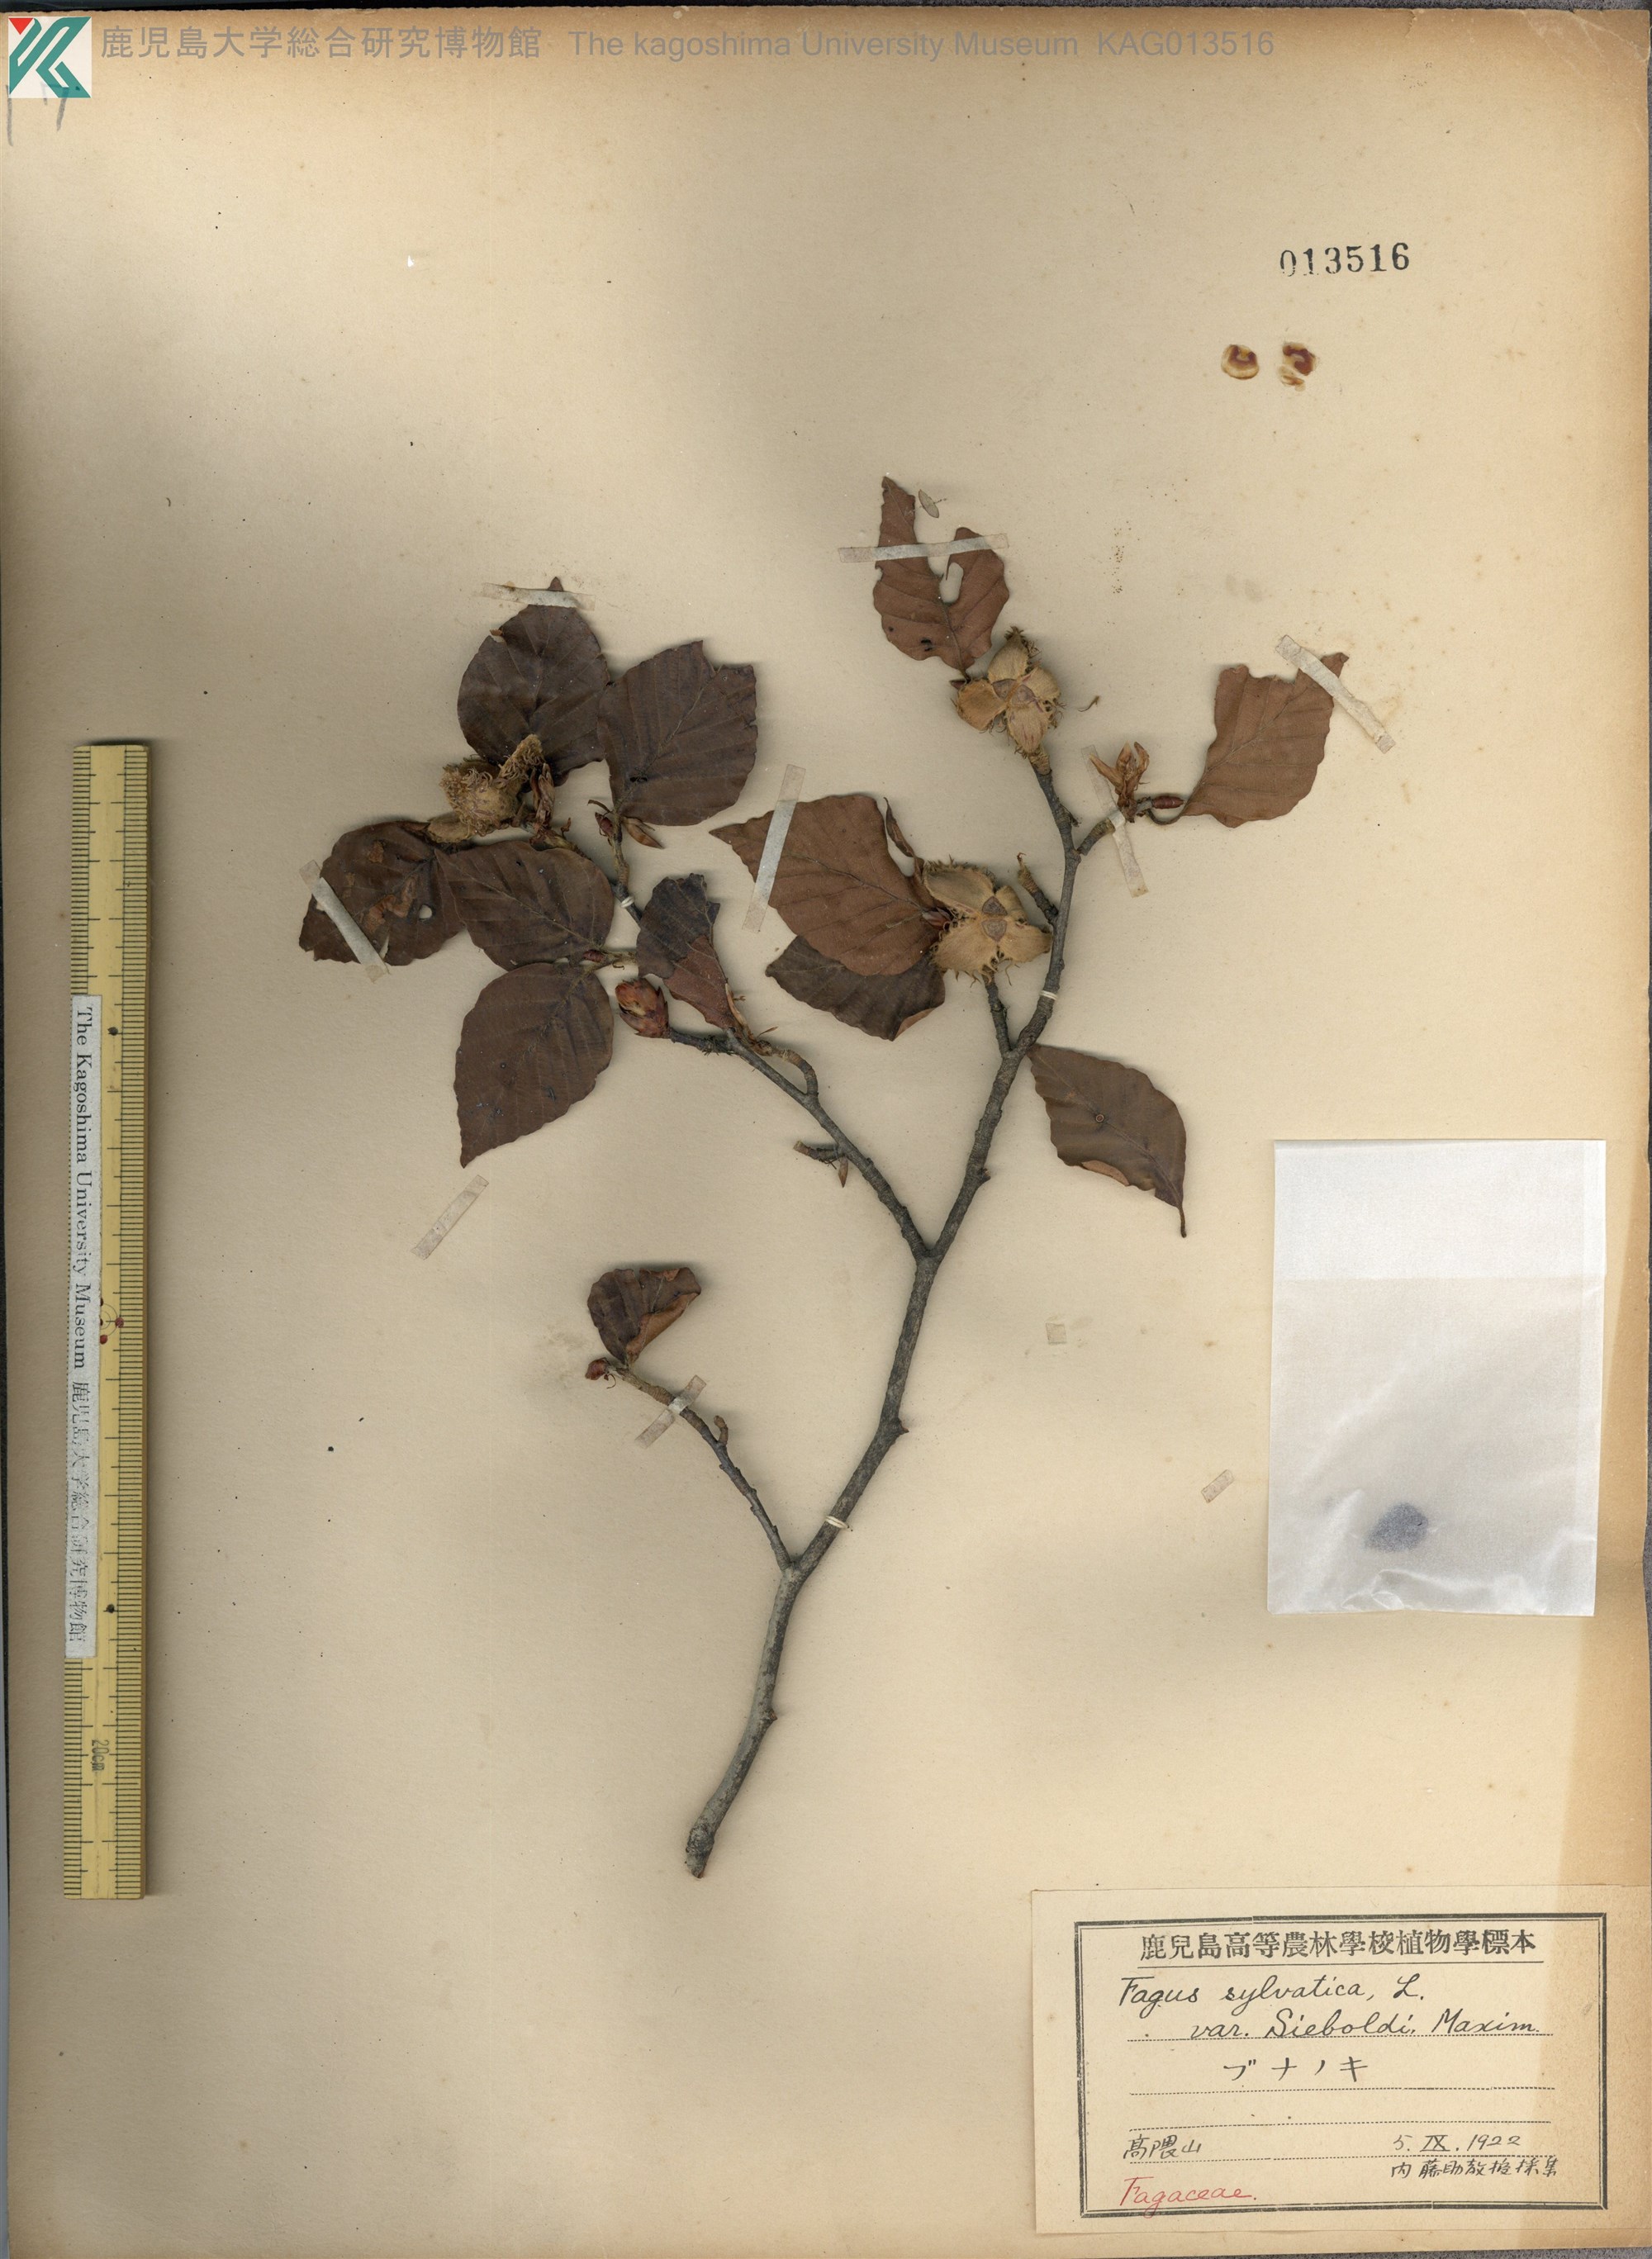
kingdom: Plantae
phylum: Tracheophyta
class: Magnoliopsida
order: Fagales
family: Fagaceae
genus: Fagus
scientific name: Fagus crenata
